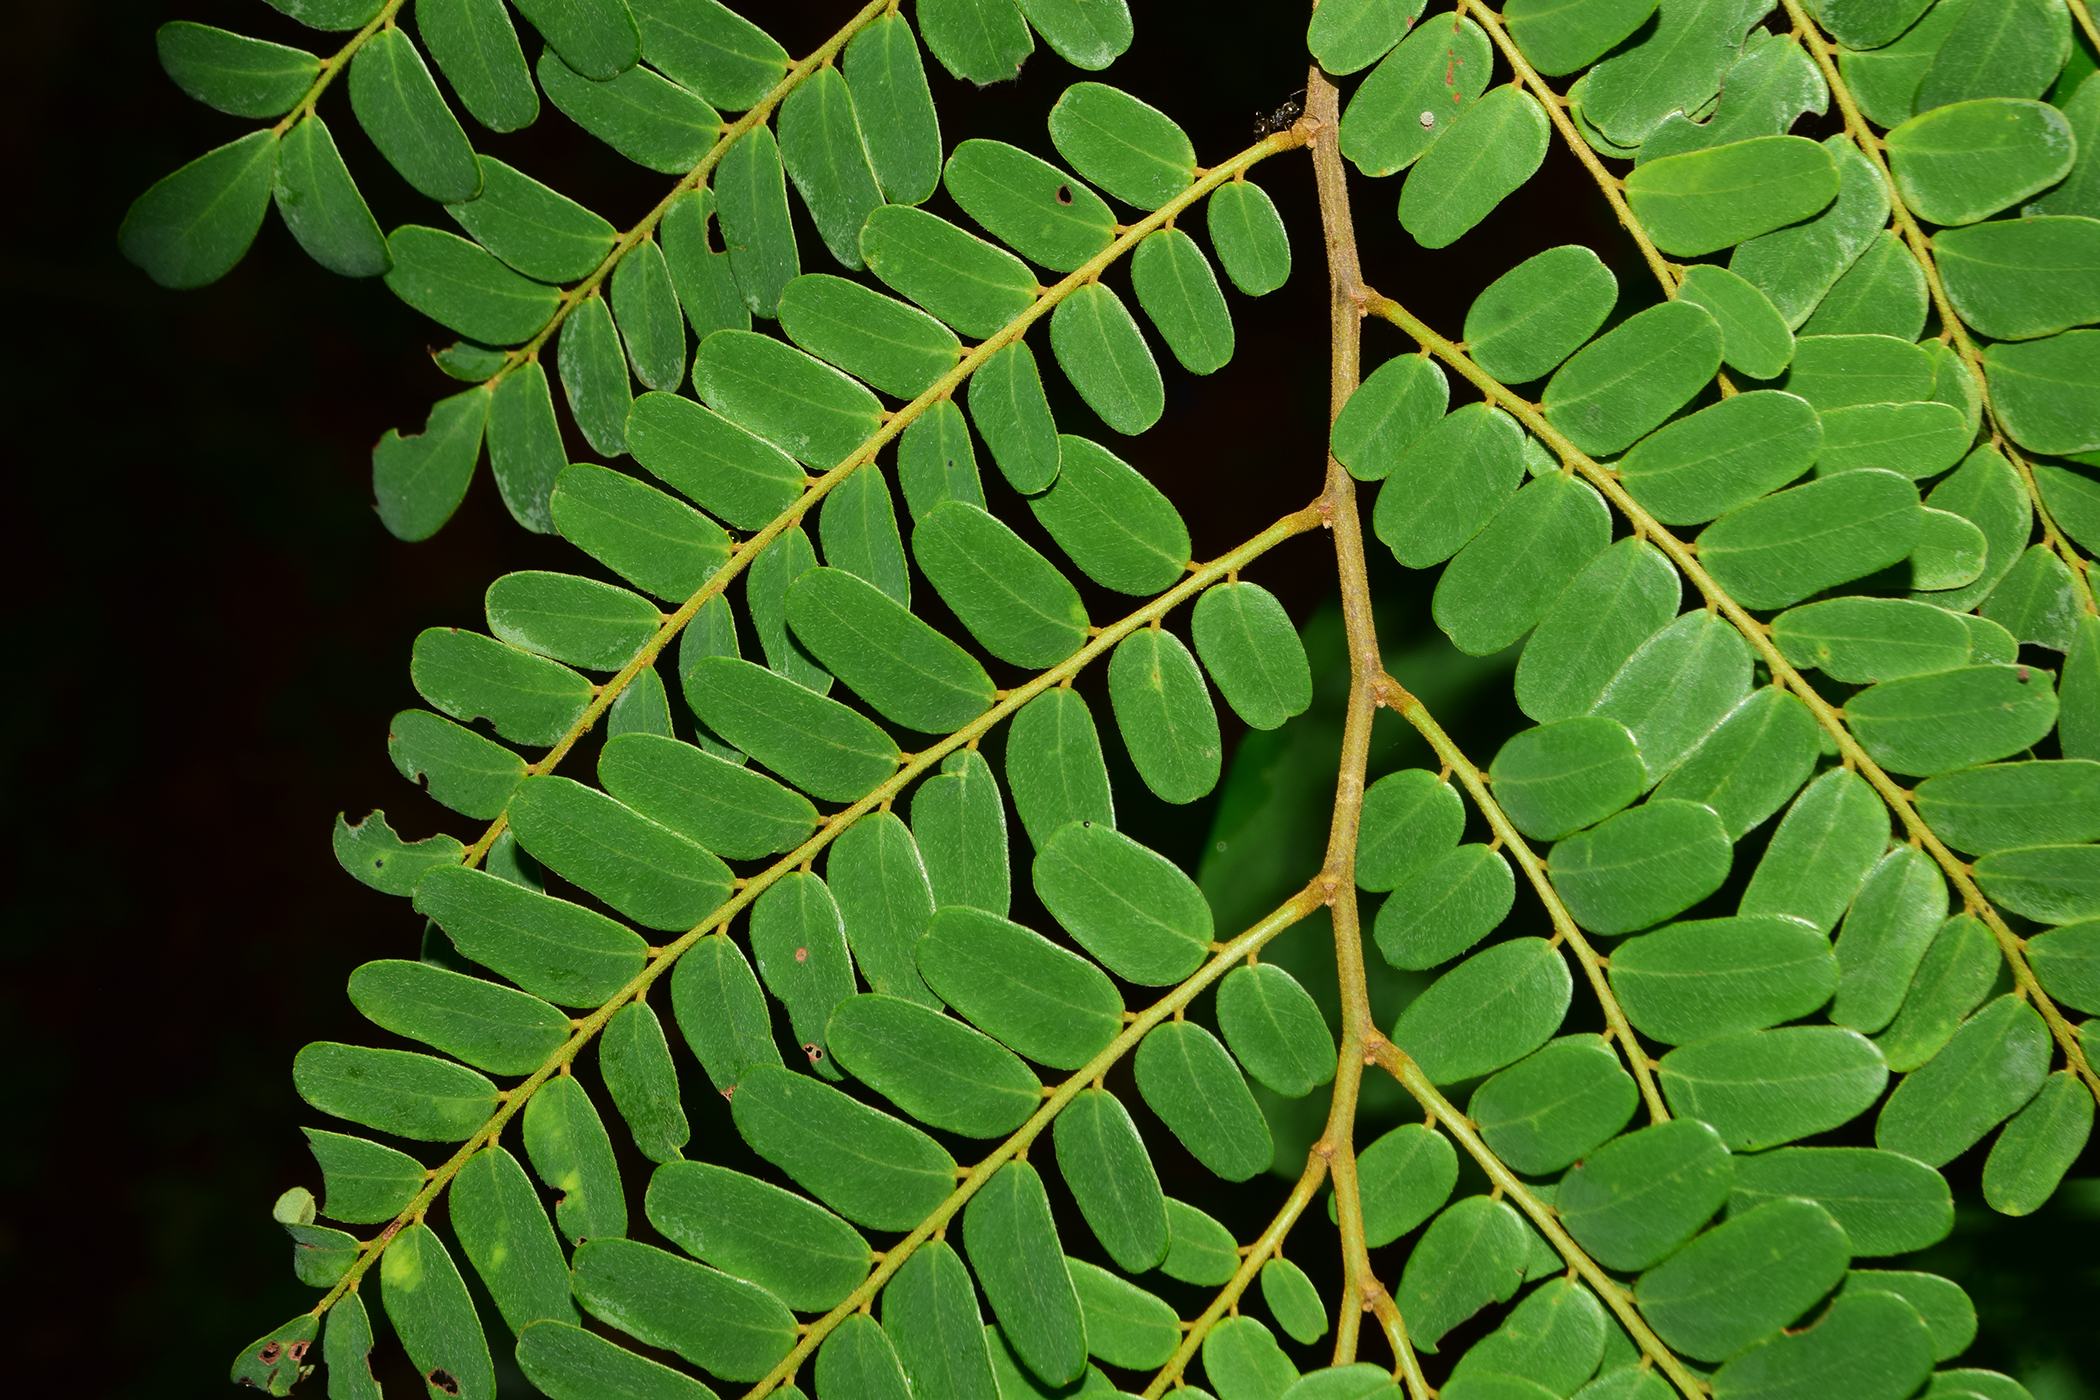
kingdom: Plantae
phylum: Tracheophyta
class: Magnoliopsida
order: Fabales
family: Fabaceae
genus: Dalbergia
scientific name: Dalbergia pinnata
